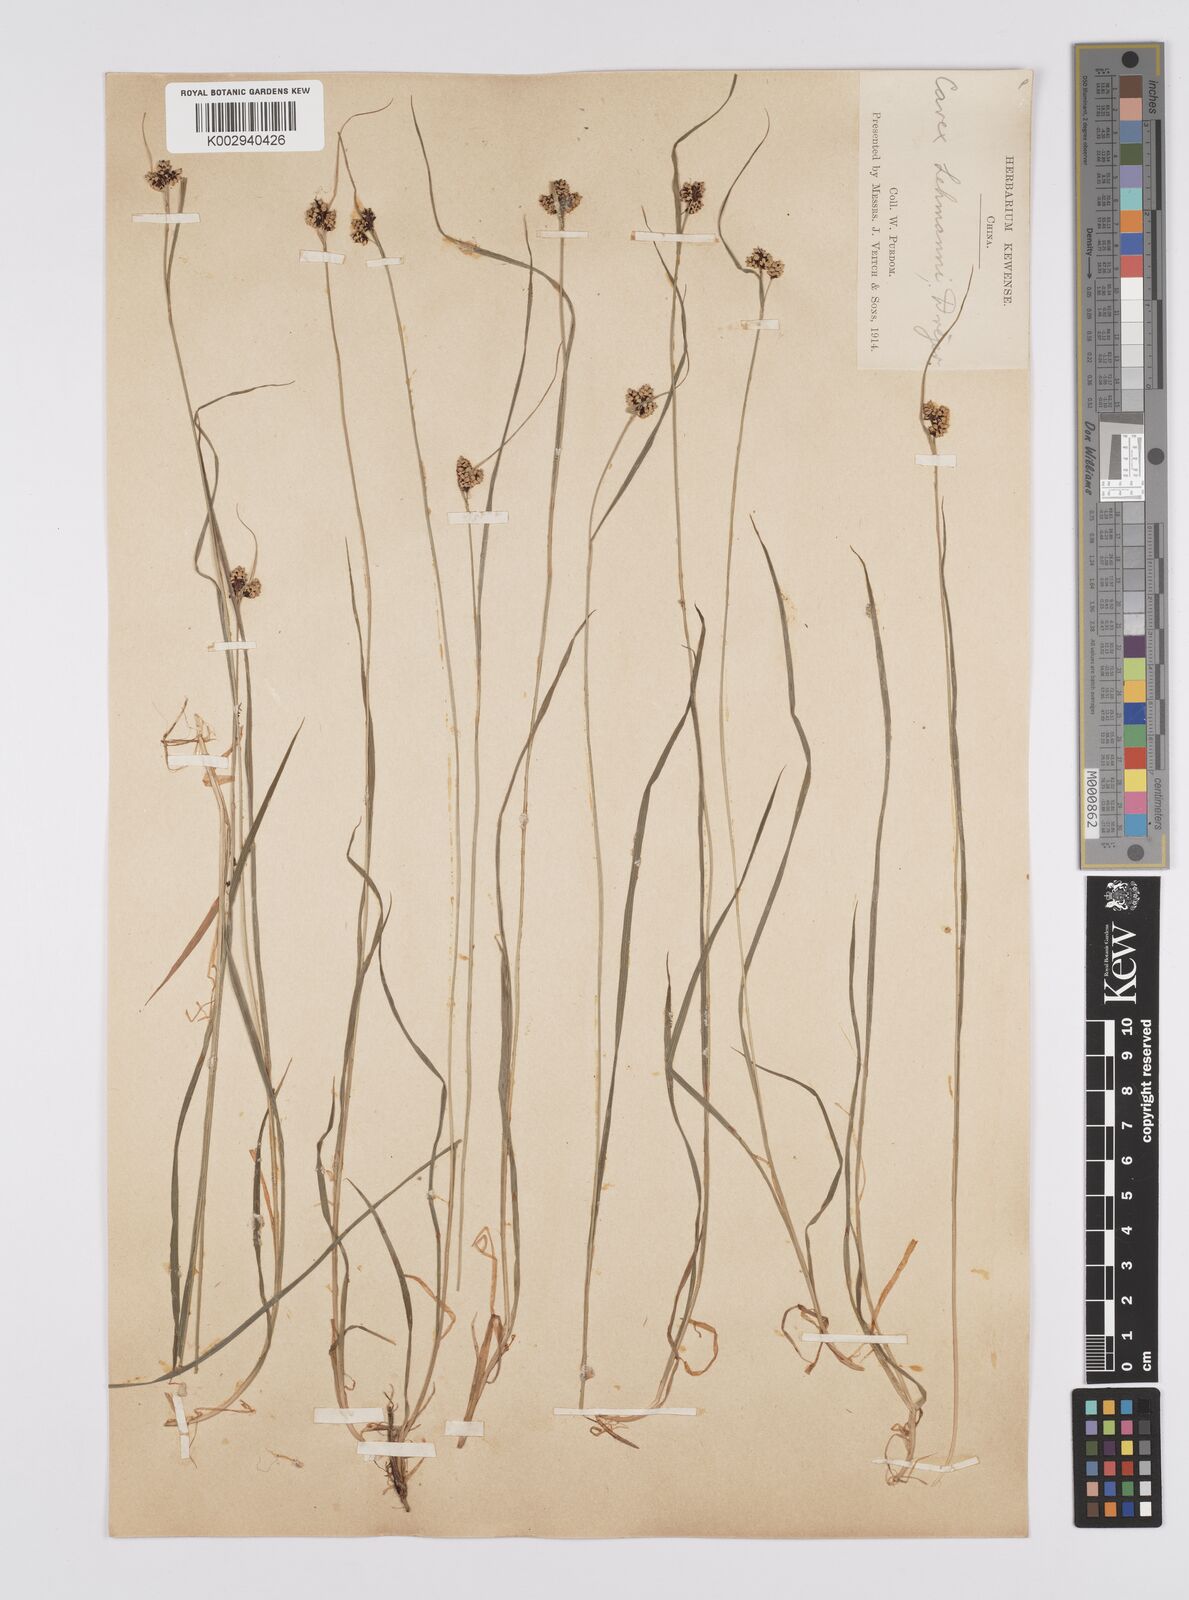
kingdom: Plantae
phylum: Tracheophyta
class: Liliopsida
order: Poales
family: Cyperaceae
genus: Carex
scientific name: Carex lehmannii
